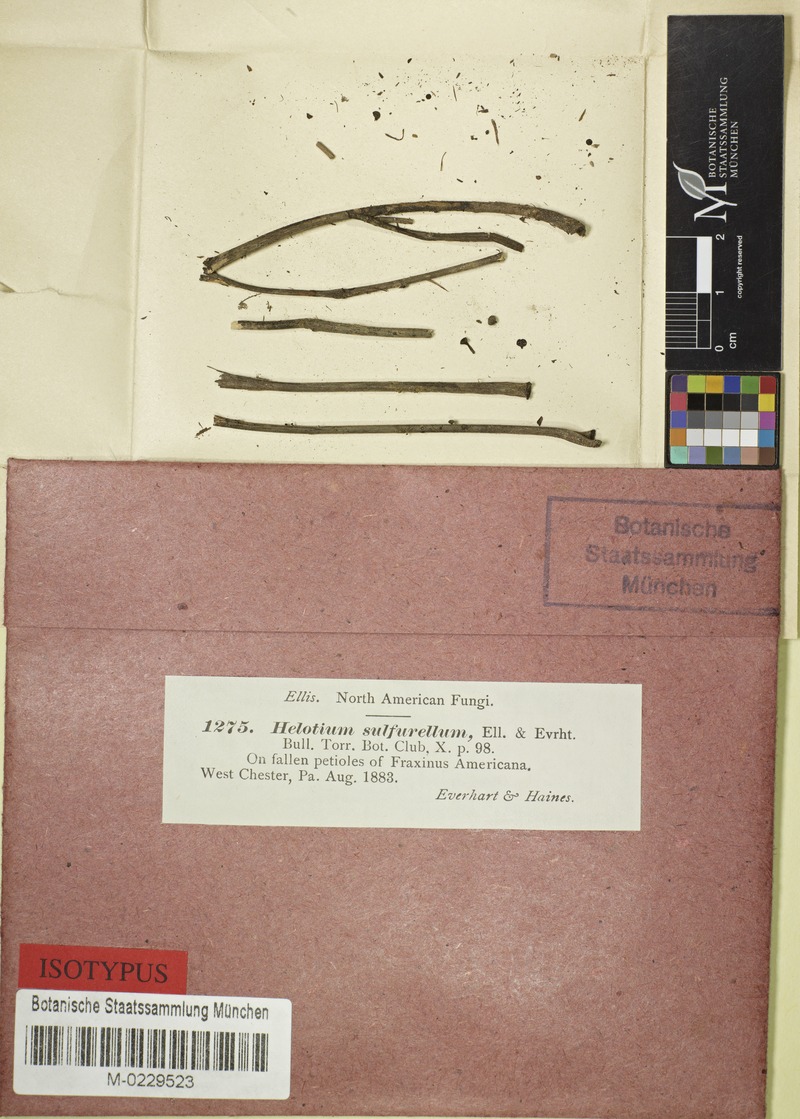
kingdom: Fungi
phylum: Ascomycota
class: Leotiomycetes
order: Helotiales
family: Sclerotiniaceae
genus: Ciboria
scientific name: Ciboria sulfurella
